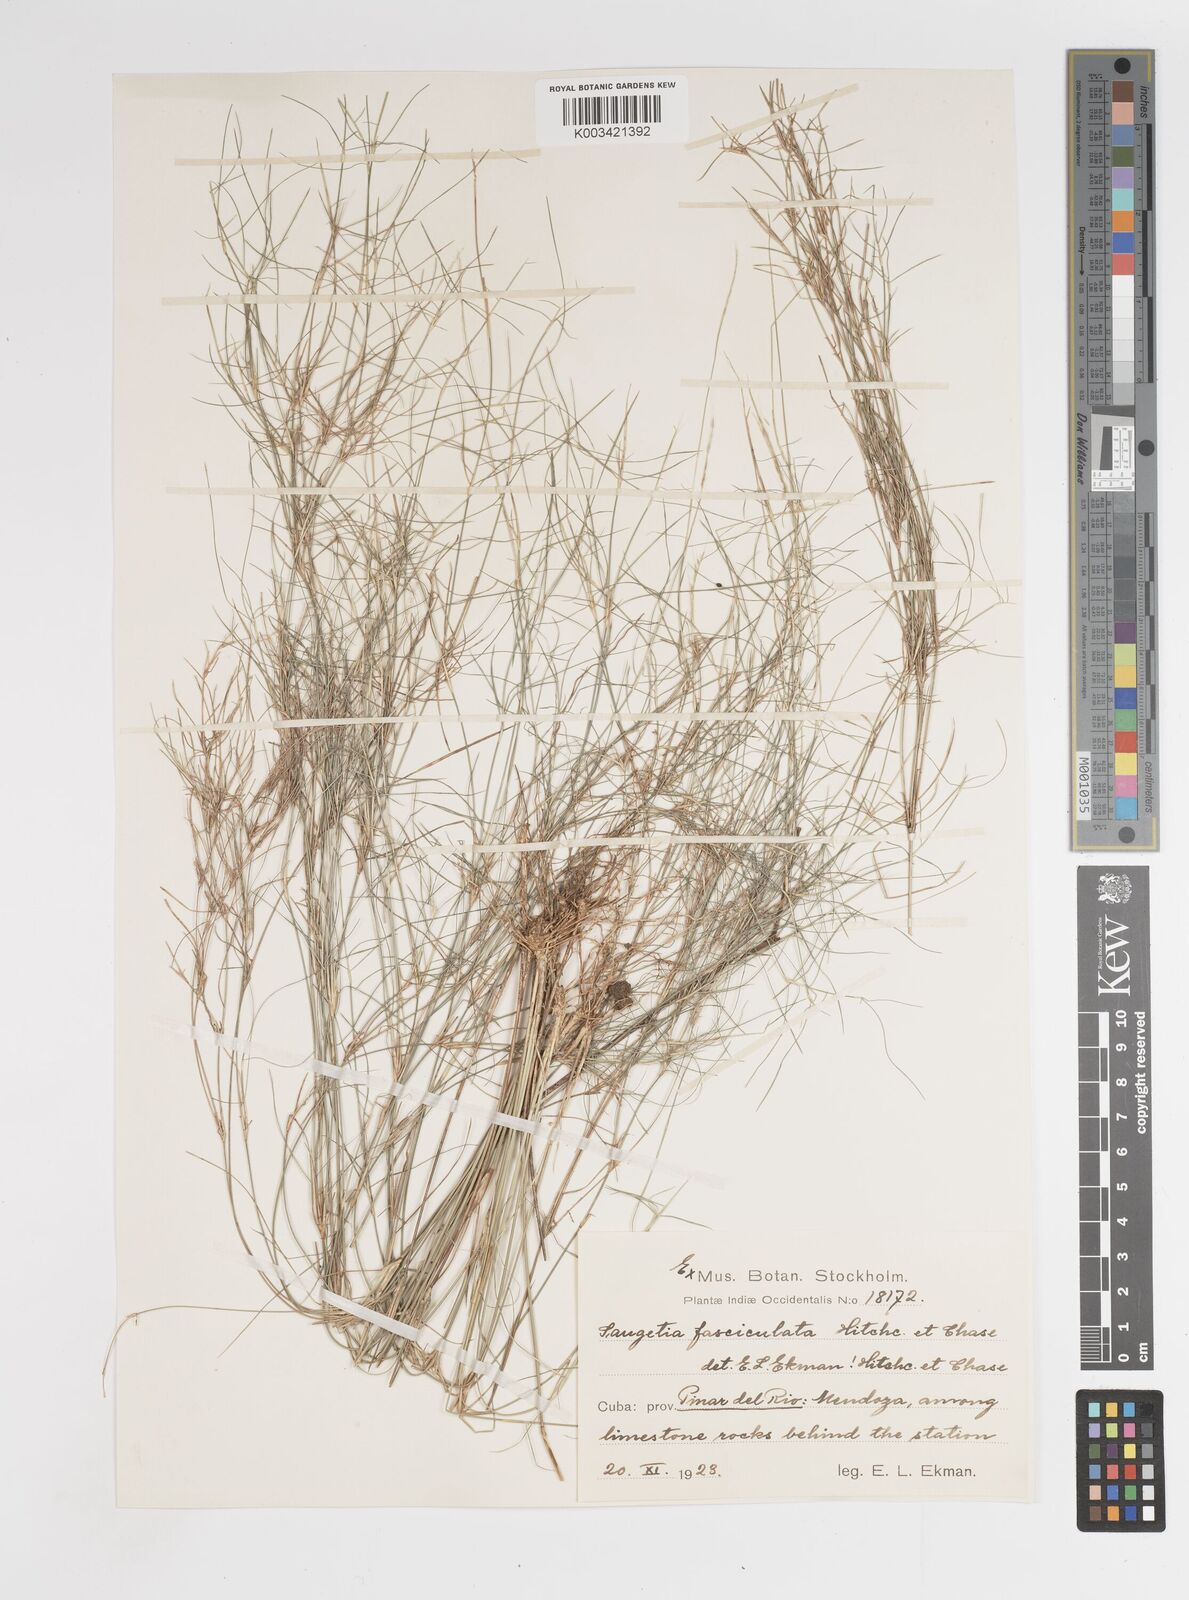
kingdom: Plantae
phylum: Tracheophyta
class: Liliopsida
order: Poales
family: Poaceae
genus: Enteropogon
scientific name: Enteropogon
